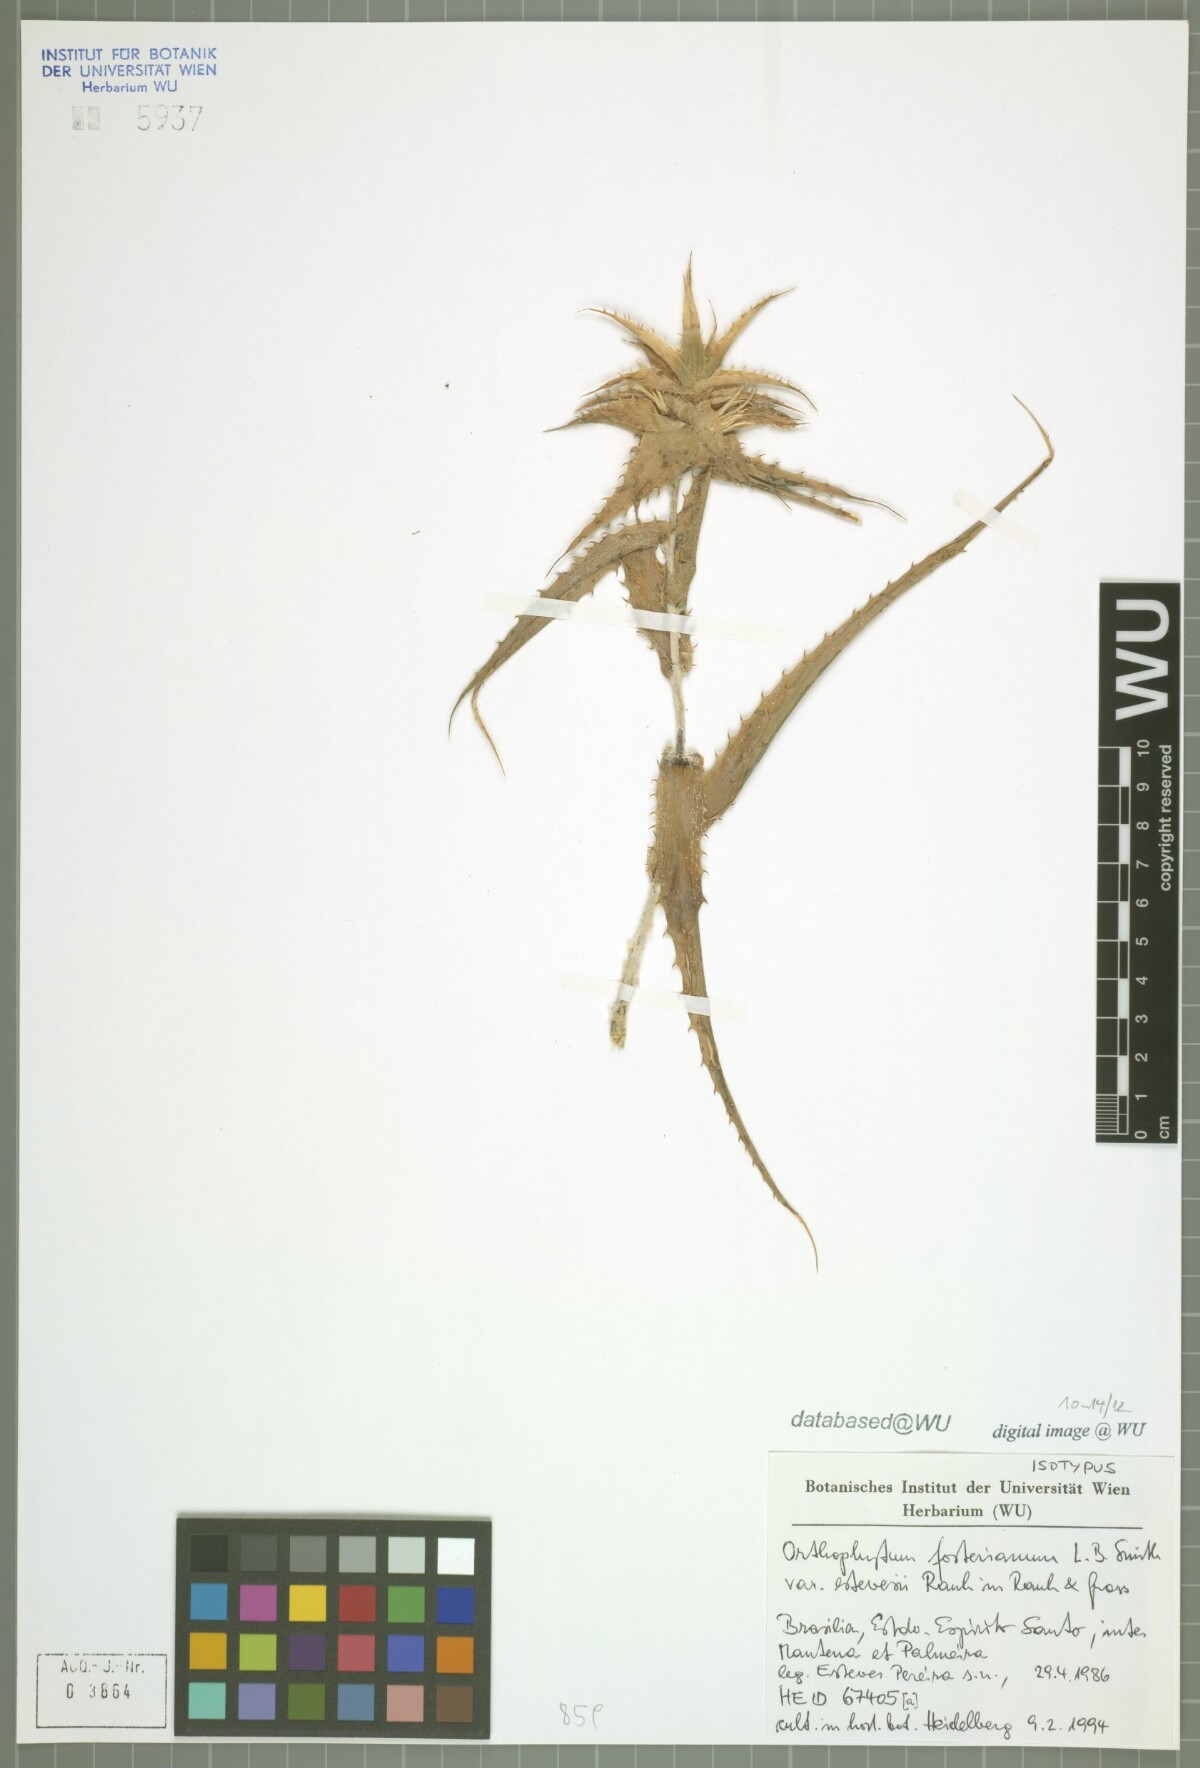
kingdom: Plantae
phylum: Tracheophyta
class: Liliopsida
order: Poales
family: Bromeliaceae
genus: Orthophytum
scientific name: Orthophytum estevesii
